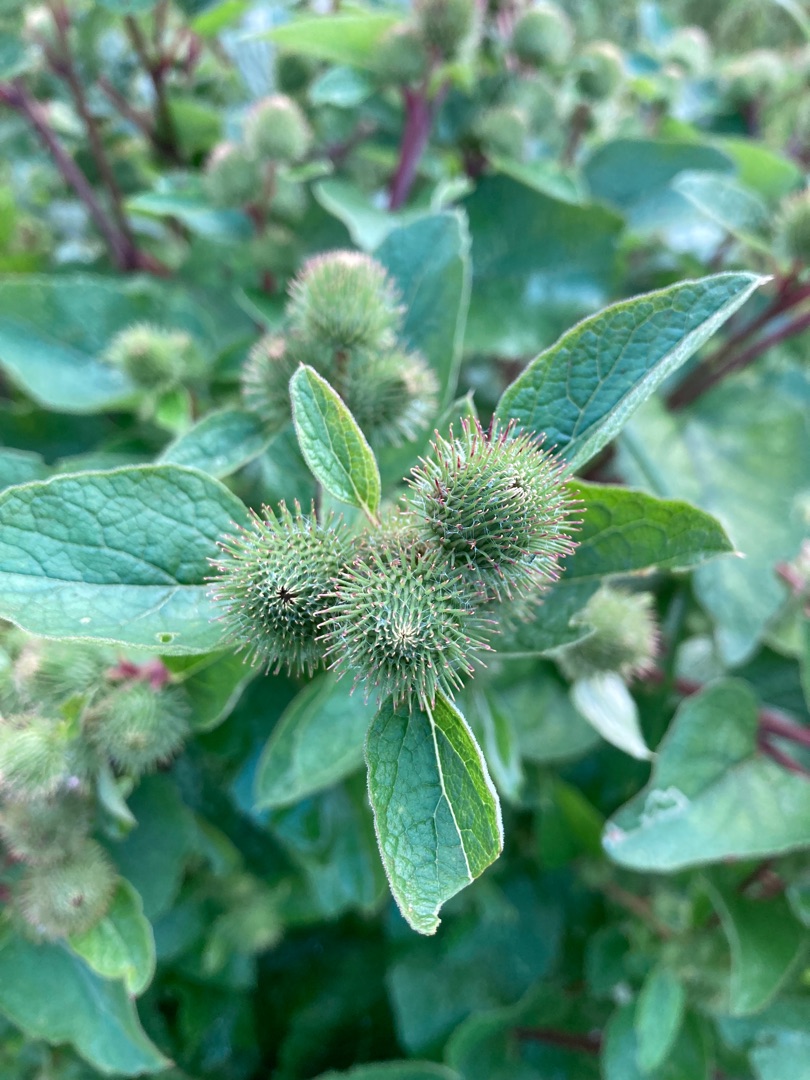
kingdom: Plantae
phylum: Tracheophyta
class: Magnoliopsida
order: Asterales
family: Asteraceae
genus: Arctium
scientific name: Arctium minus
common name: Liden burre
